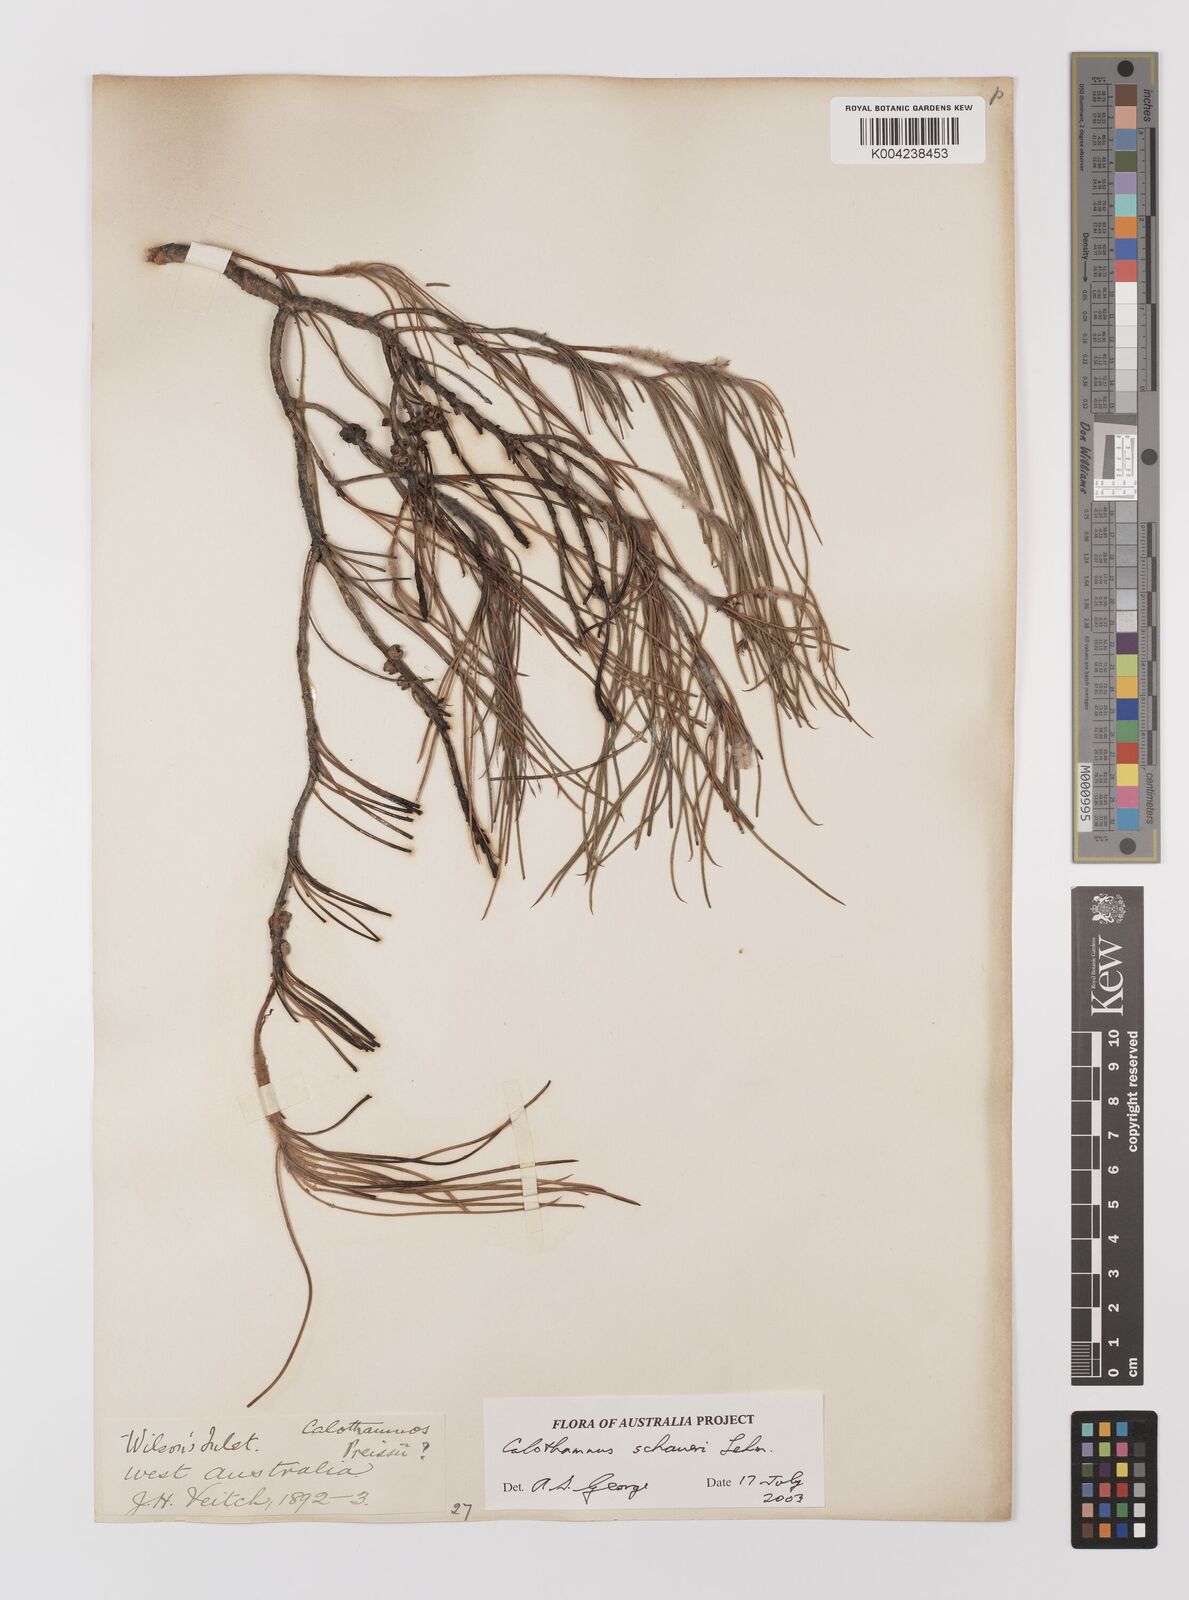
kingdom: Plantae
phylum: Tracheophyta
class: Magnoliopsida
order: Myrtales
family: Myrtaceae
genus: Melaleuca
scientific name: Melaleuca schaueri
